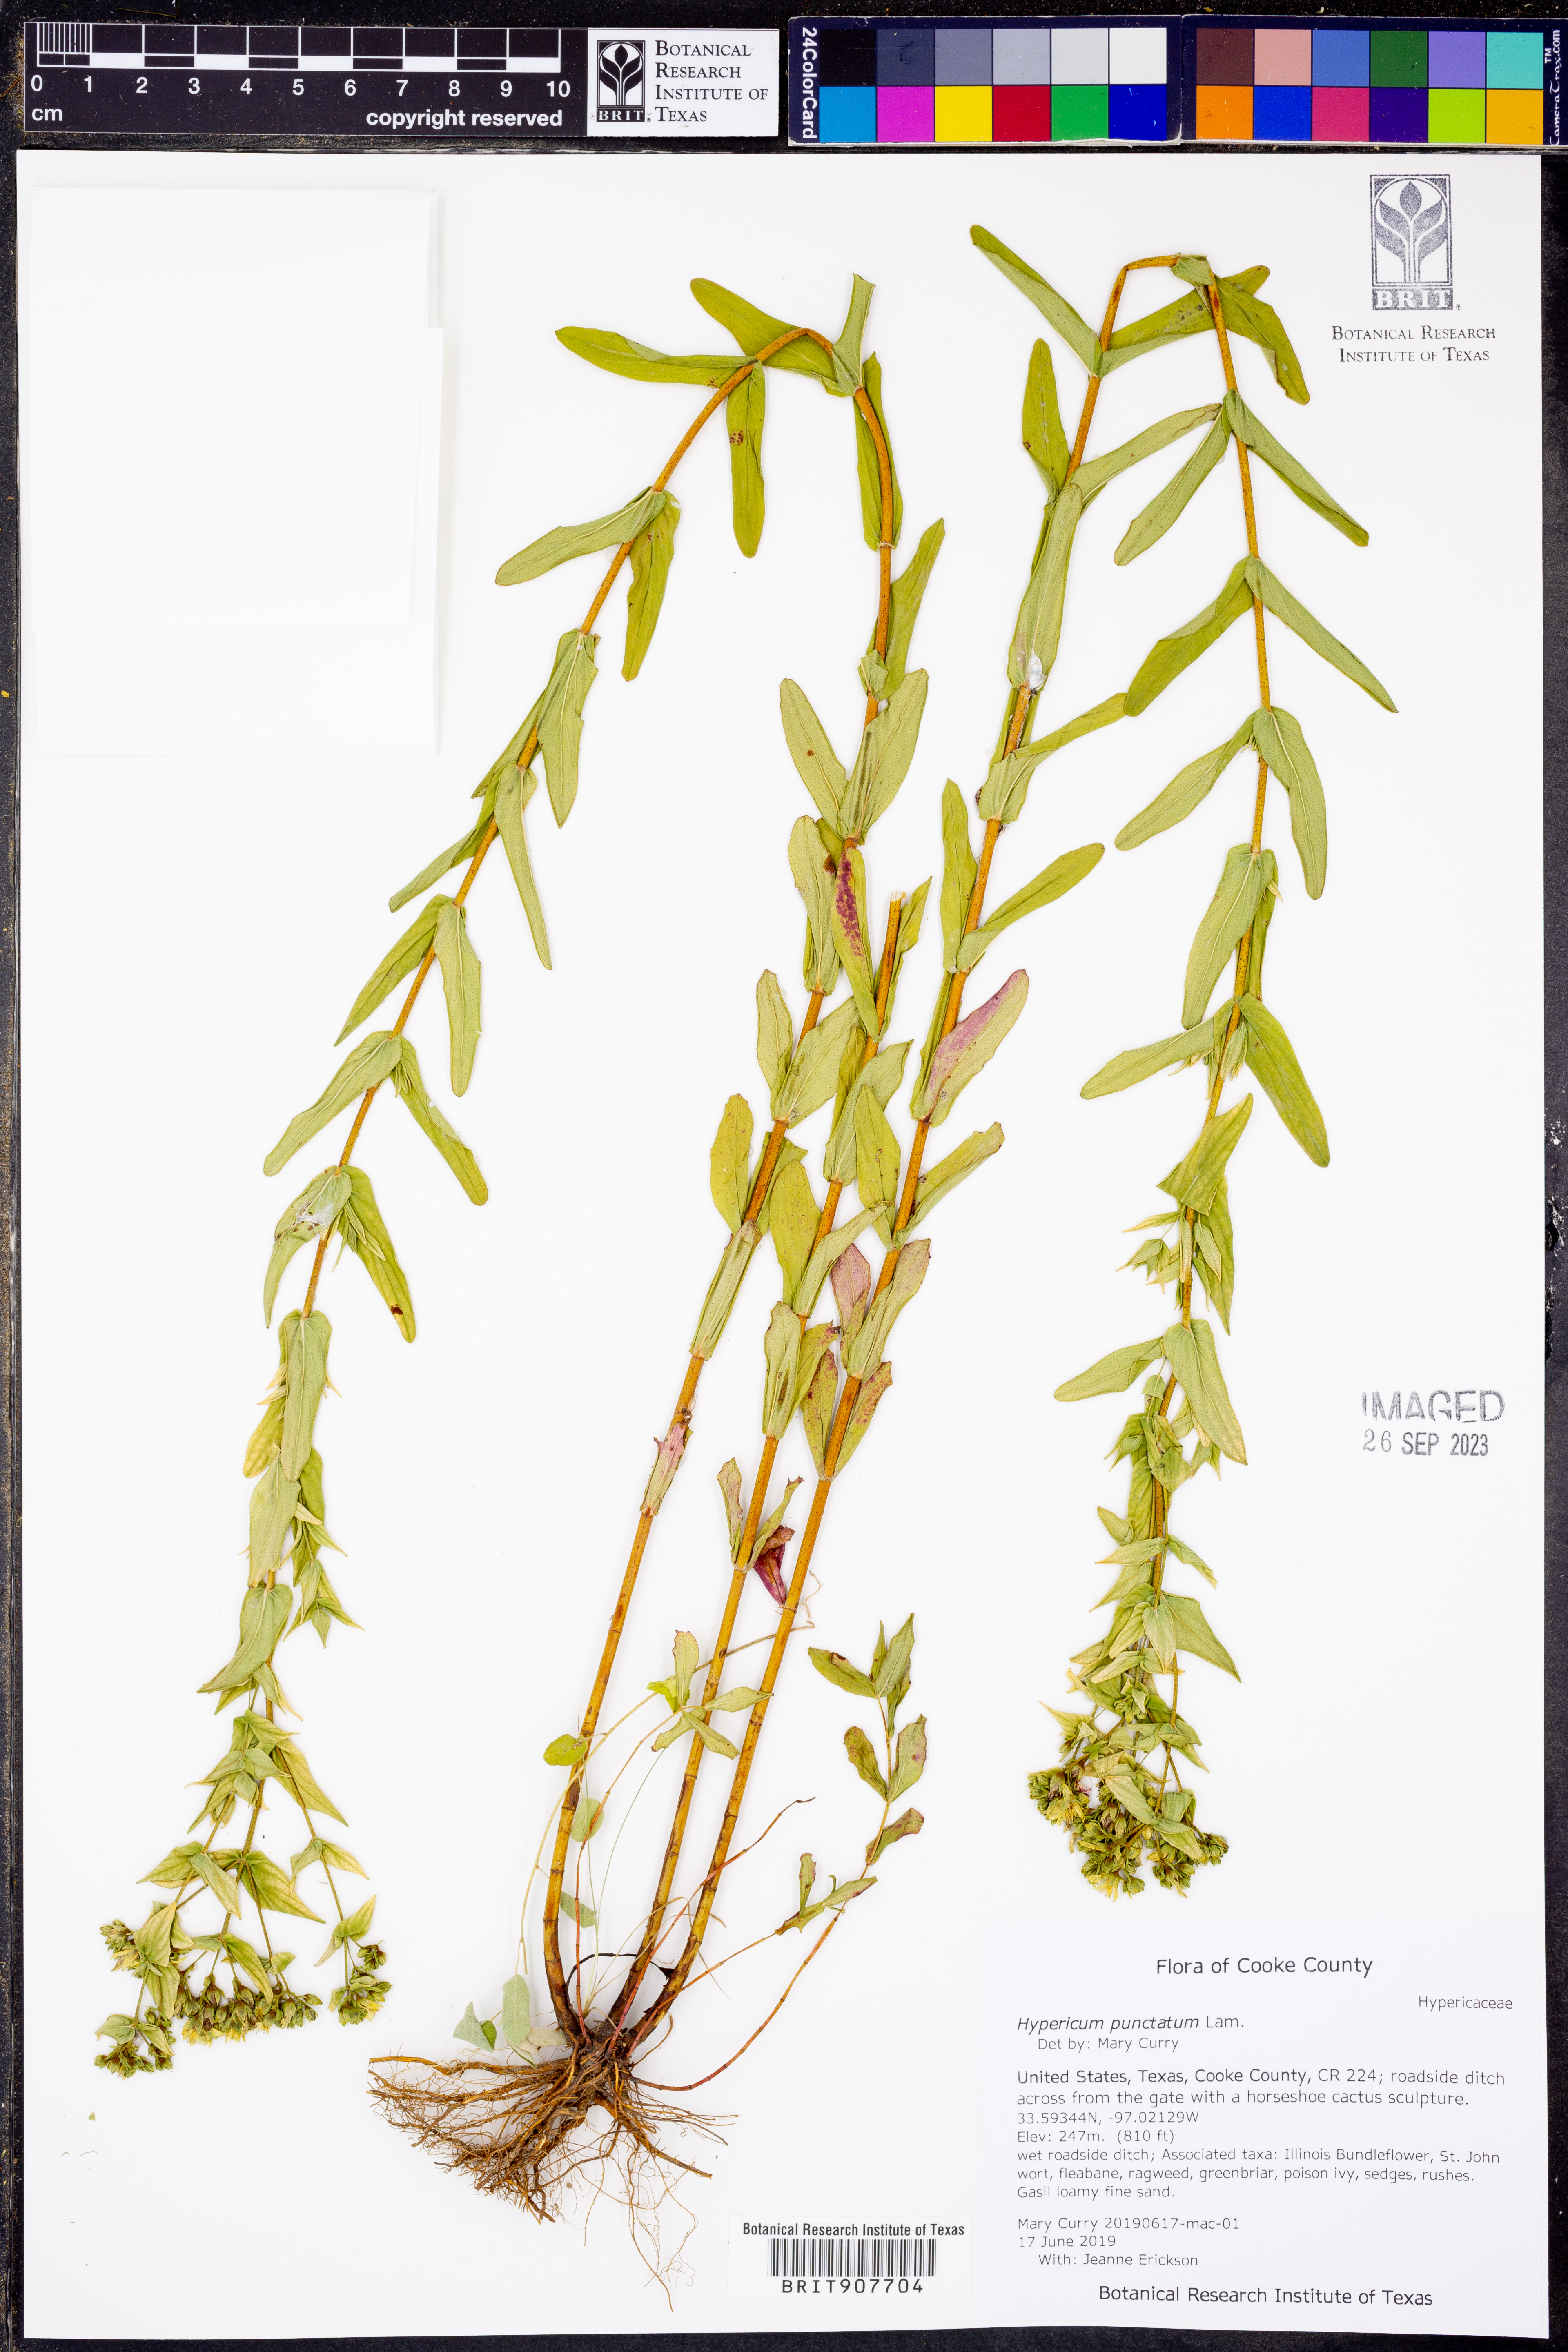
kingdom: Plantae
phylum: Tracheophyta
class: Magnoliopsida
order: Malpighiales
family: Hypericaceae
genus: Hypericum
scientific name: Hypericum punctatum
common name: Spotted st. john's-wort
